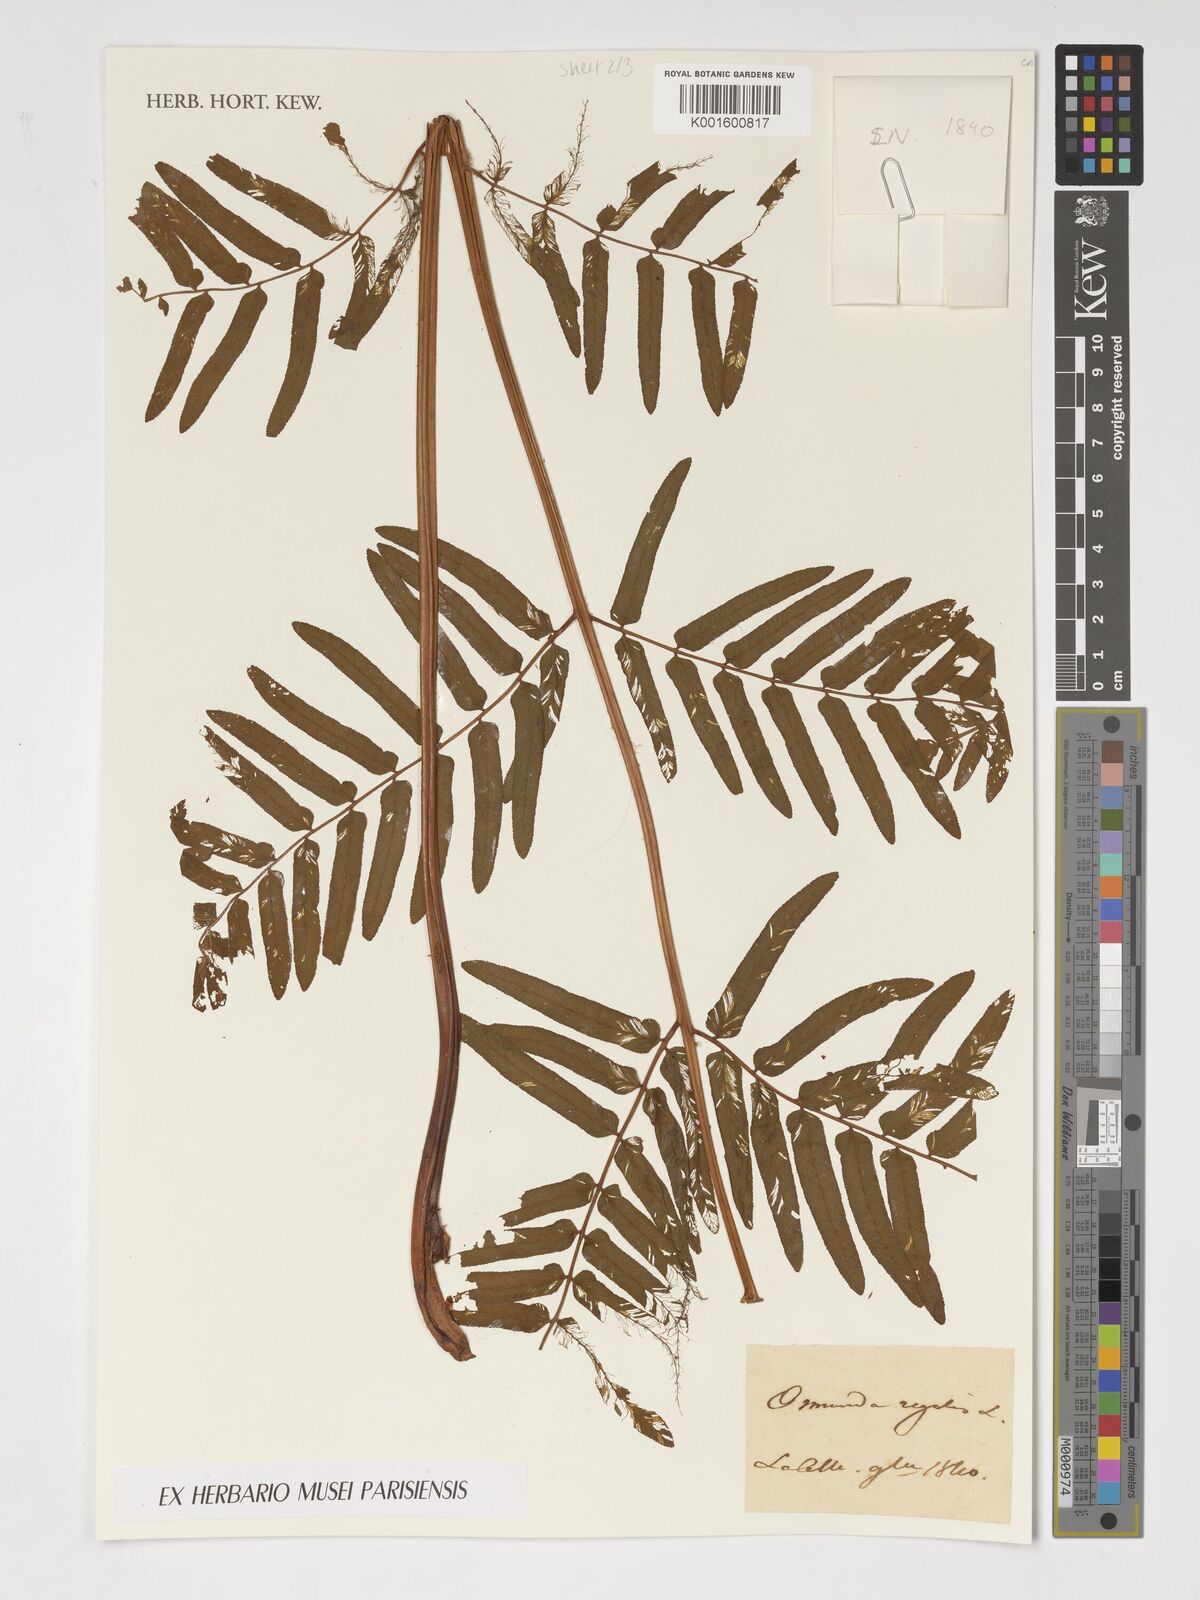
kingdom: Plantae
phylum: Tracheophyta
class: Polypodiopsida
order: Osmundales
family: Osmundaceae
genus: Osmunda
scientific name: Osmunda regalis
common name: Royal fern
